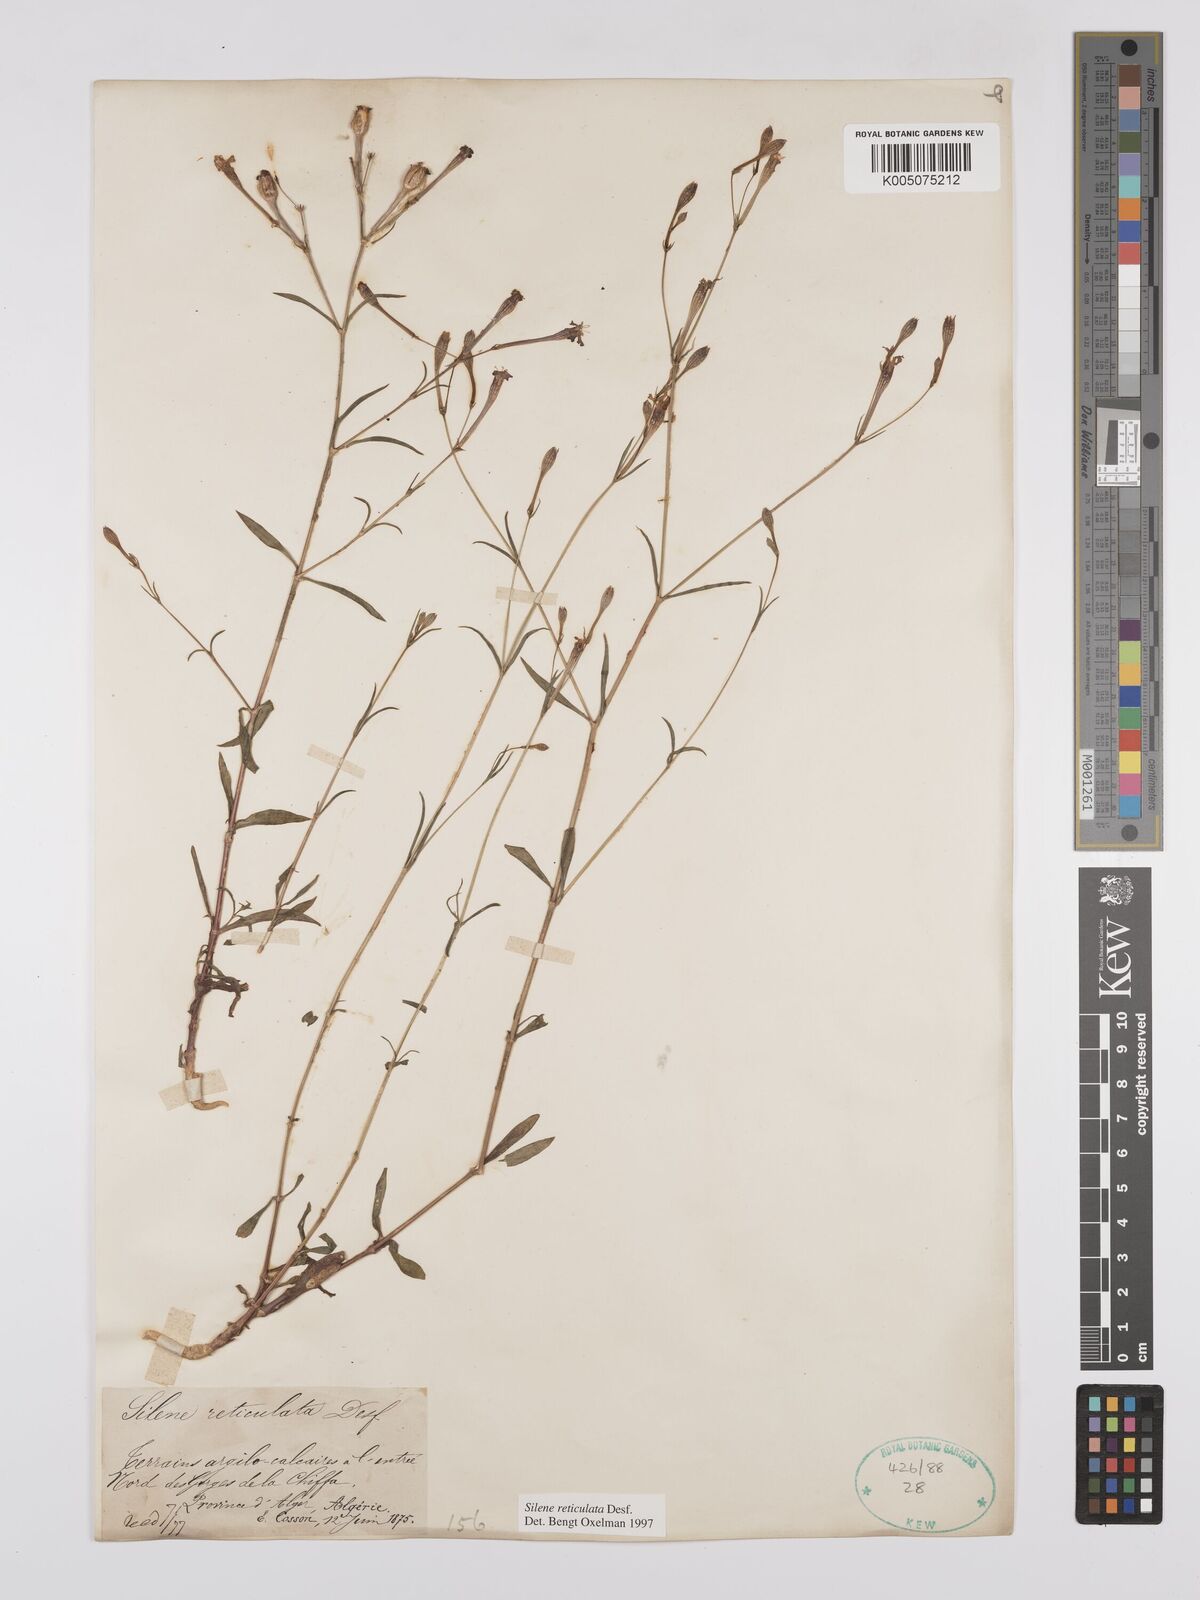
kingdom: Plantae
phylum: Tracheophyta
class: Magnoliopsida
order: Caryophyllales
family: Caryophyllaceae
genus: Silene
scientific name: Silene ramosissima
